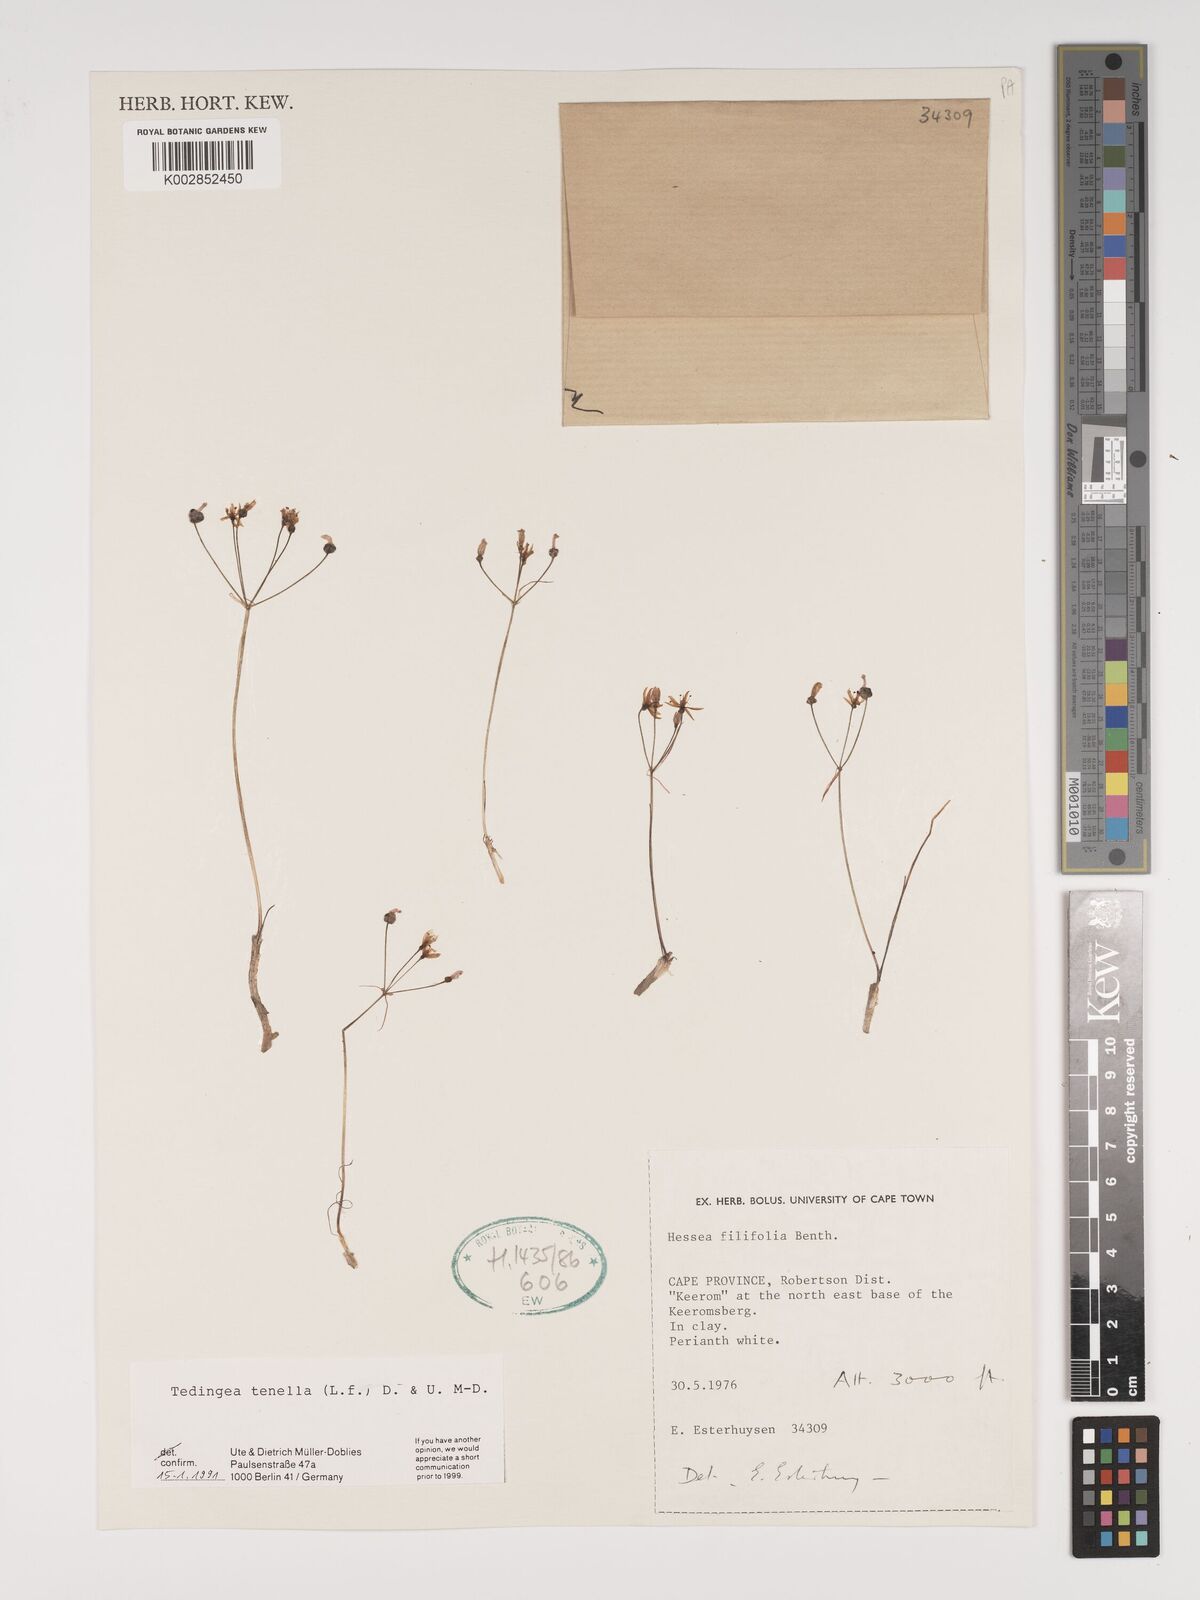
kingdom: Plantae
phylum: Tracheophyta
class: Liliopsida
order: Asparagales
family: Amaryllidaceae
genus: Strumaria
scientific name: Strumaria tenella
